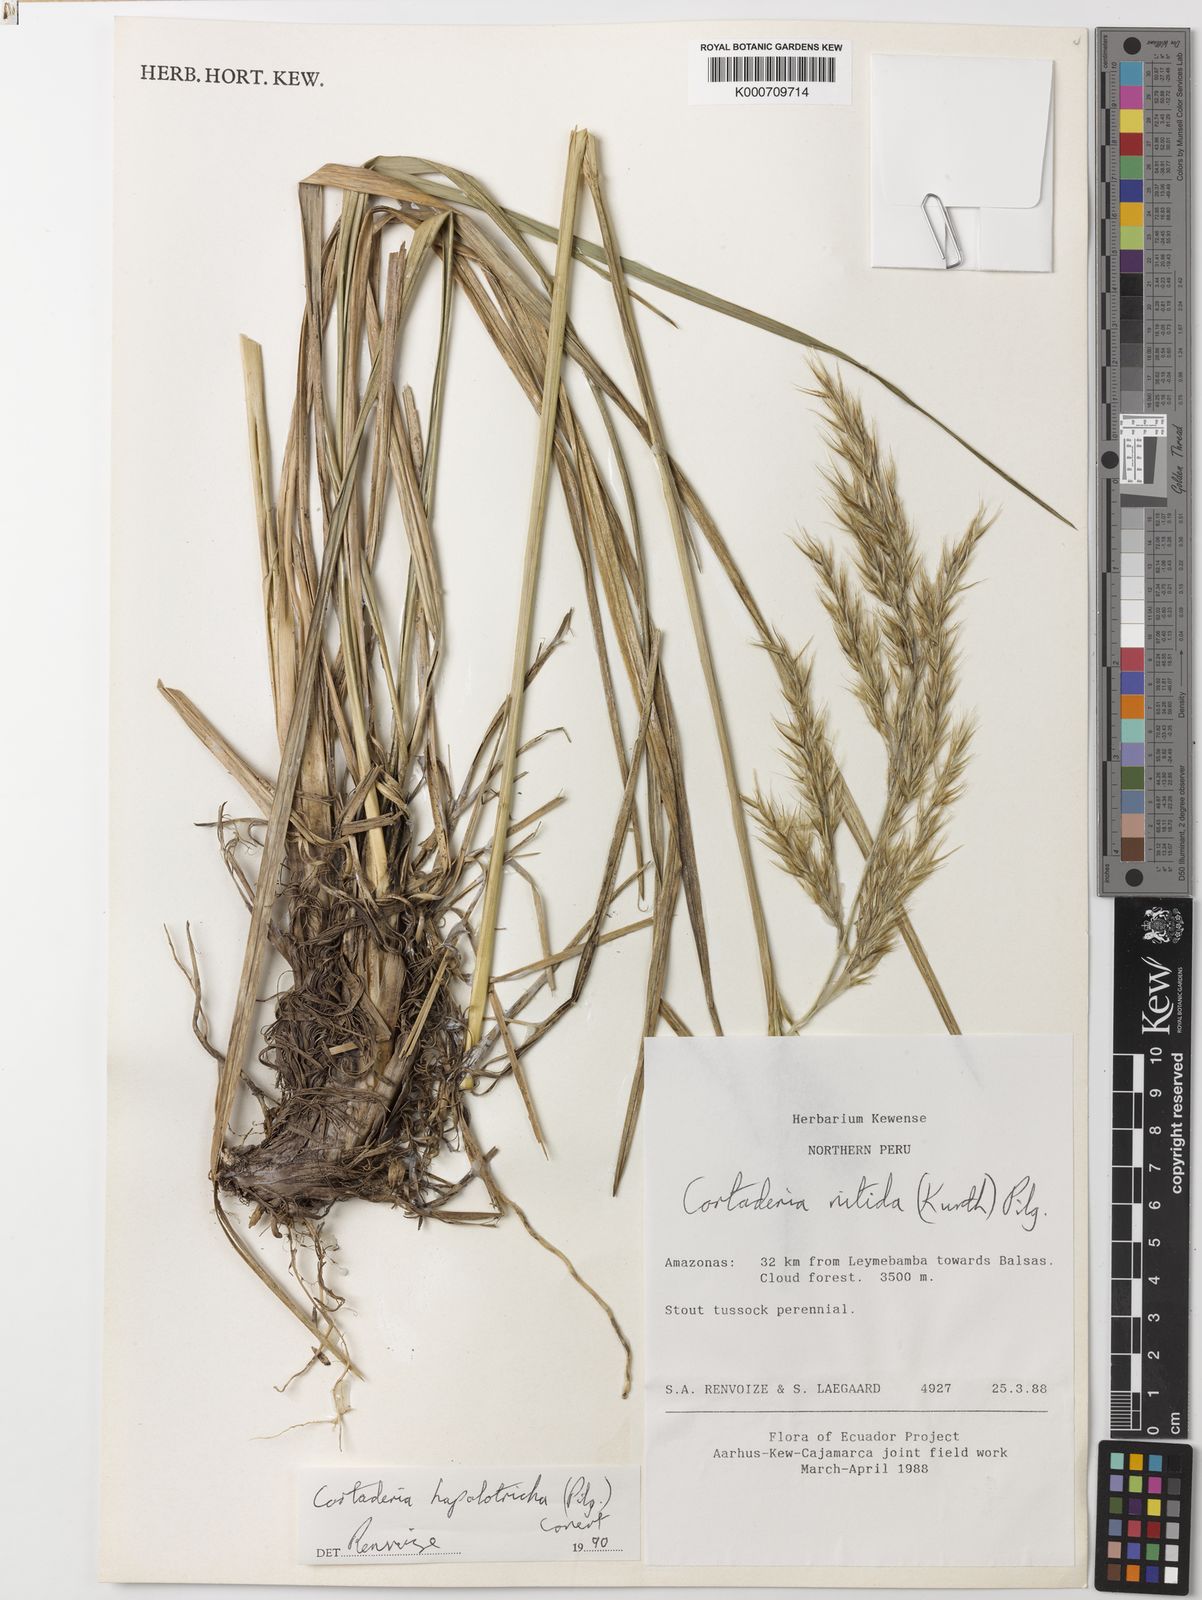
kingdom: Plantae
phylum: Tracheophyta
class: Liliopsida
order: Poales
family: Poaceae
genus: Cortaderia
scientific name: Cortaderia hapalotricha
